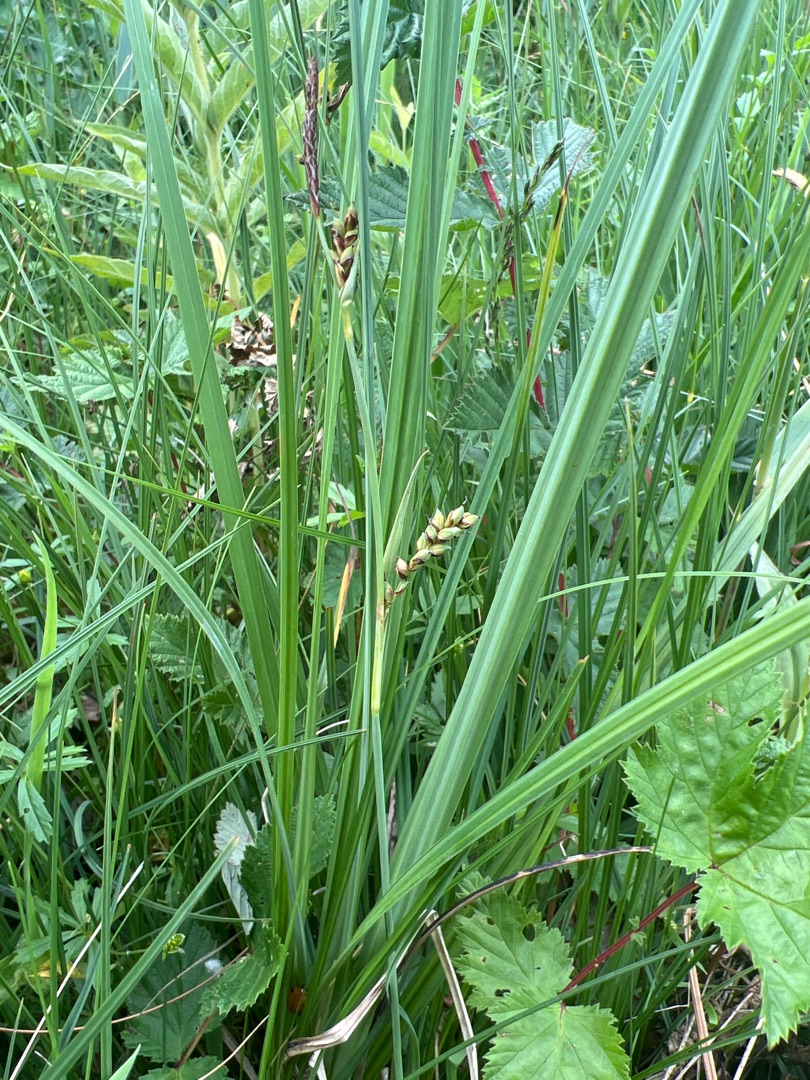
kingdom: Plantae
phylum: Tracheophyta
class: Liliopsida
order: Poales
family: Cyperaceae
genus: Carex
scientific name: Carex panicea
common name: Hirse-star
